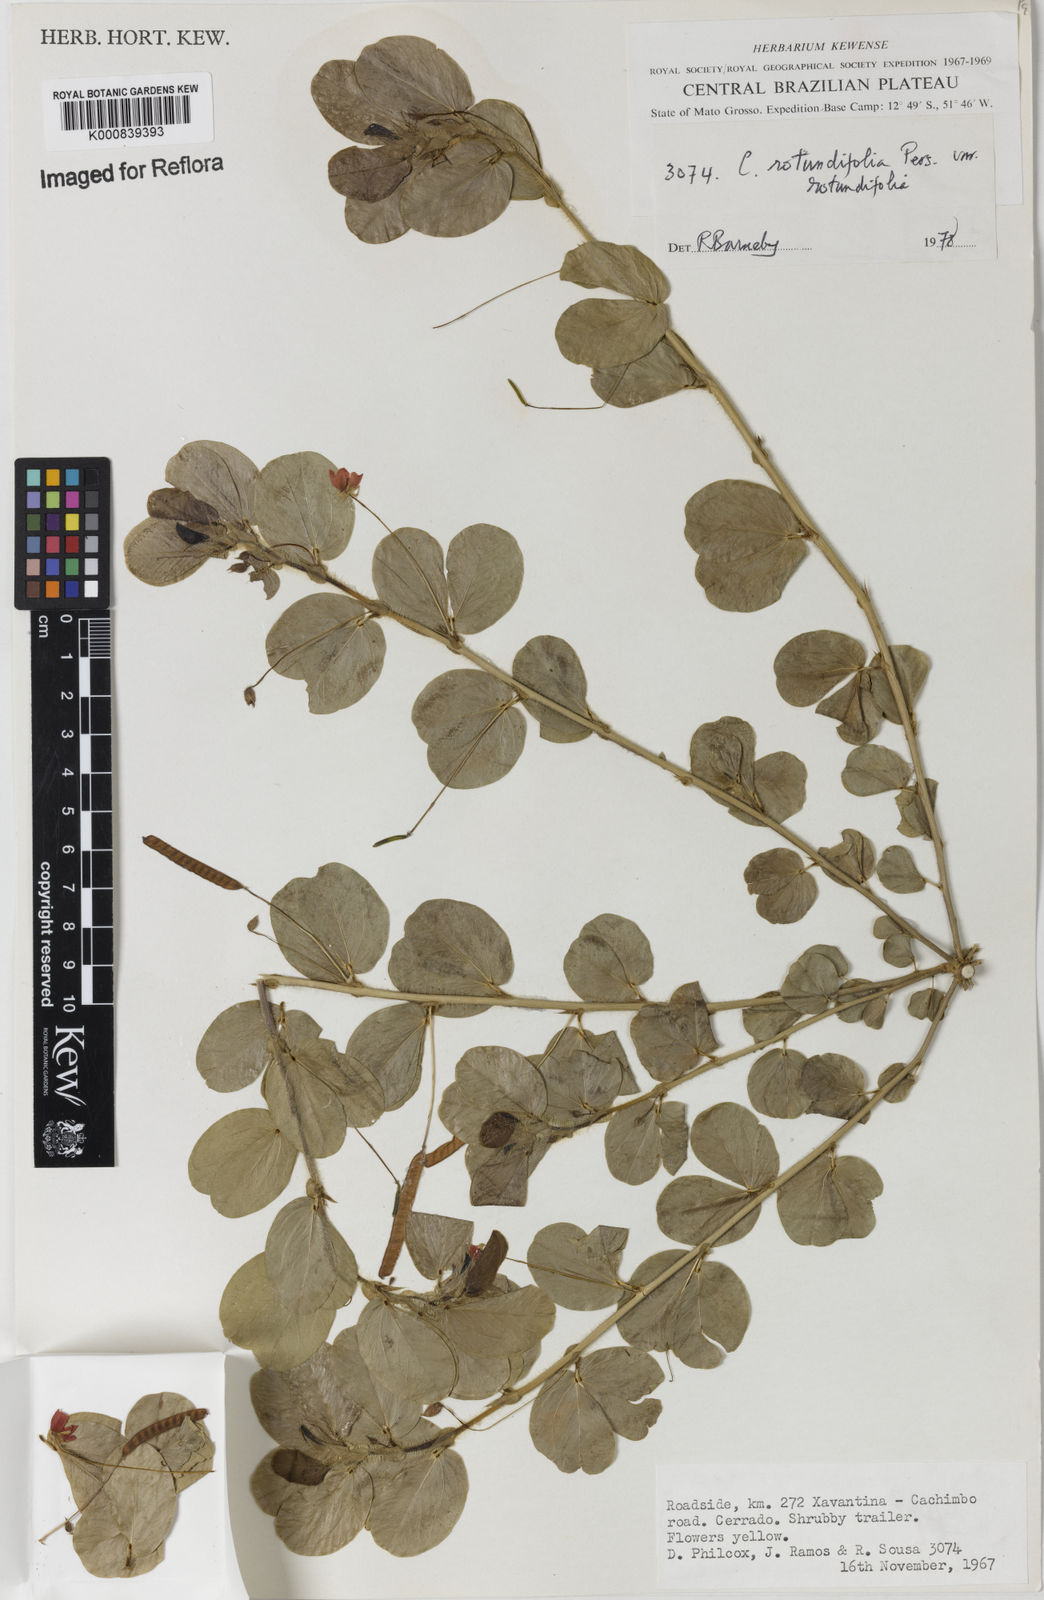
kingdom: Plantae
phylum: Tracheophyta
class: Magnoliopsida
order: Fabales
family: Fabaceae
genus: Chamaecrista
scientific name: Chamaecrista rotundifolia
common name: Round-leaf cassia
